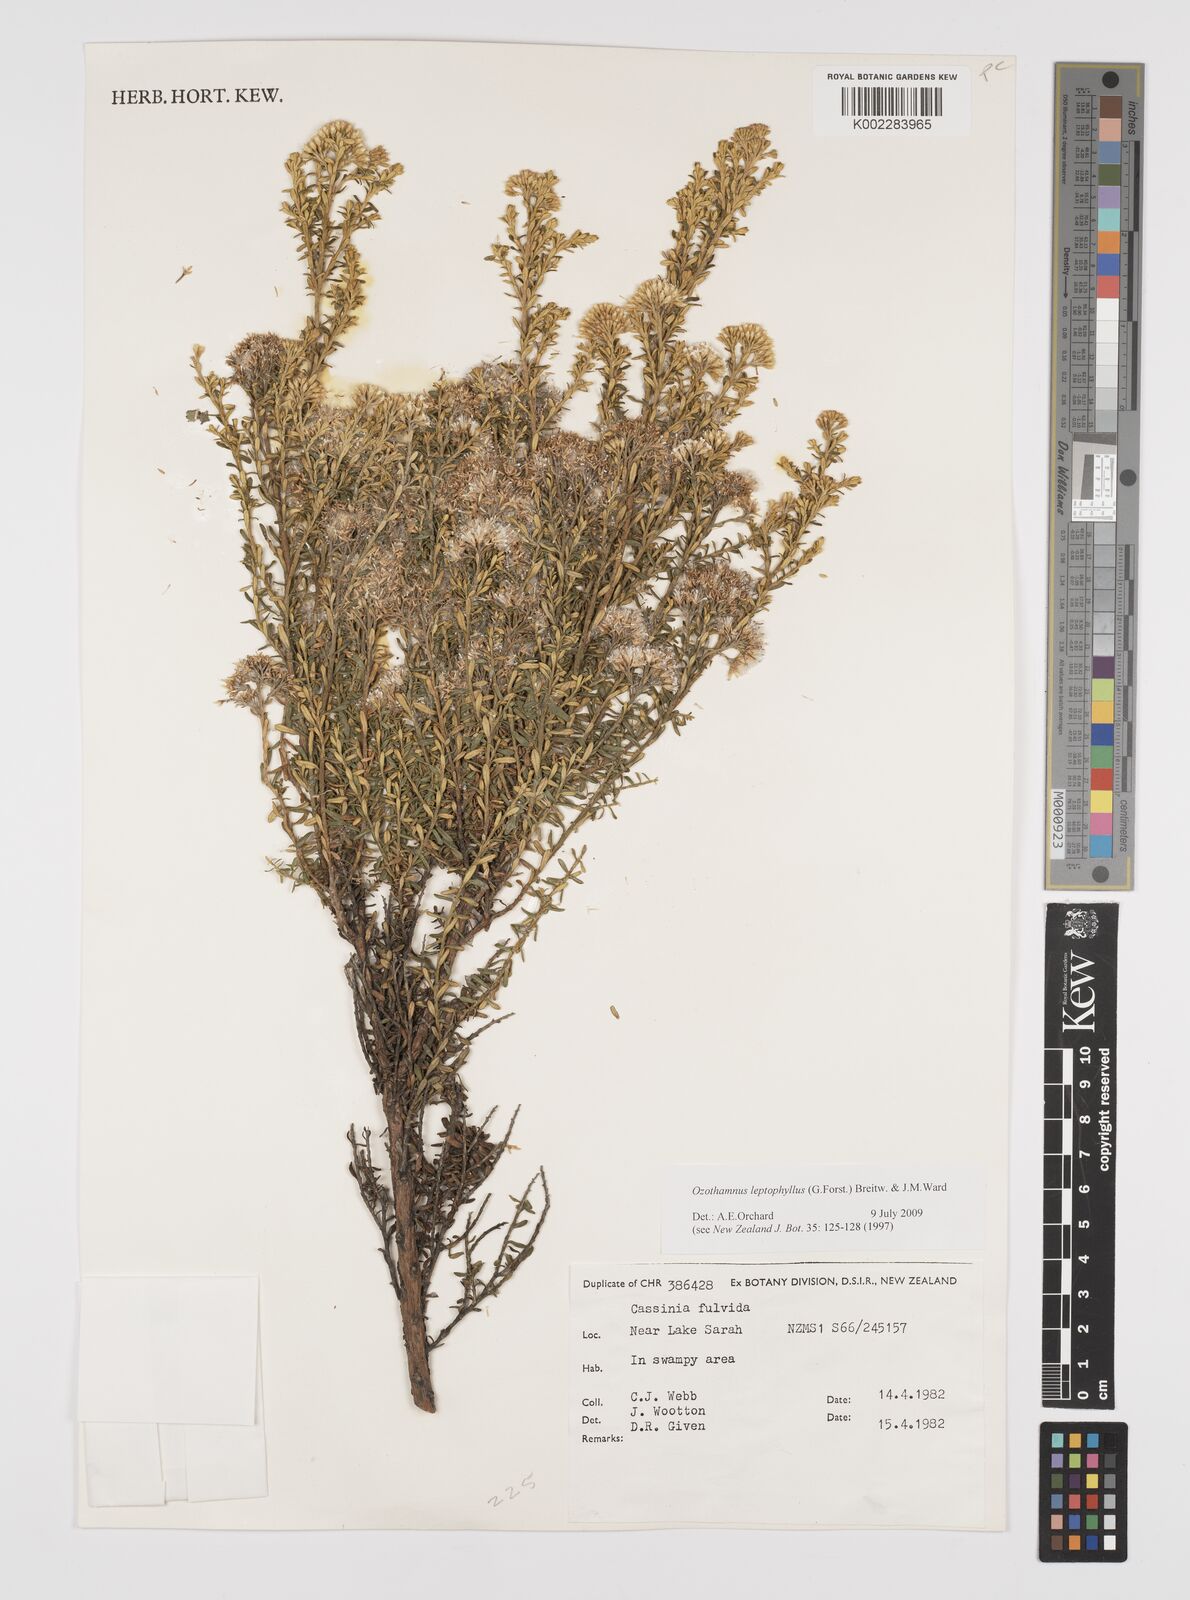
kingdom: Plantae
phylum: Tracheophyta
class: Magnoliopsida
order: Asterales
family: Asteraceae
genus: Ozothamnus
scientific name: Ozothamnus leptophyllus
